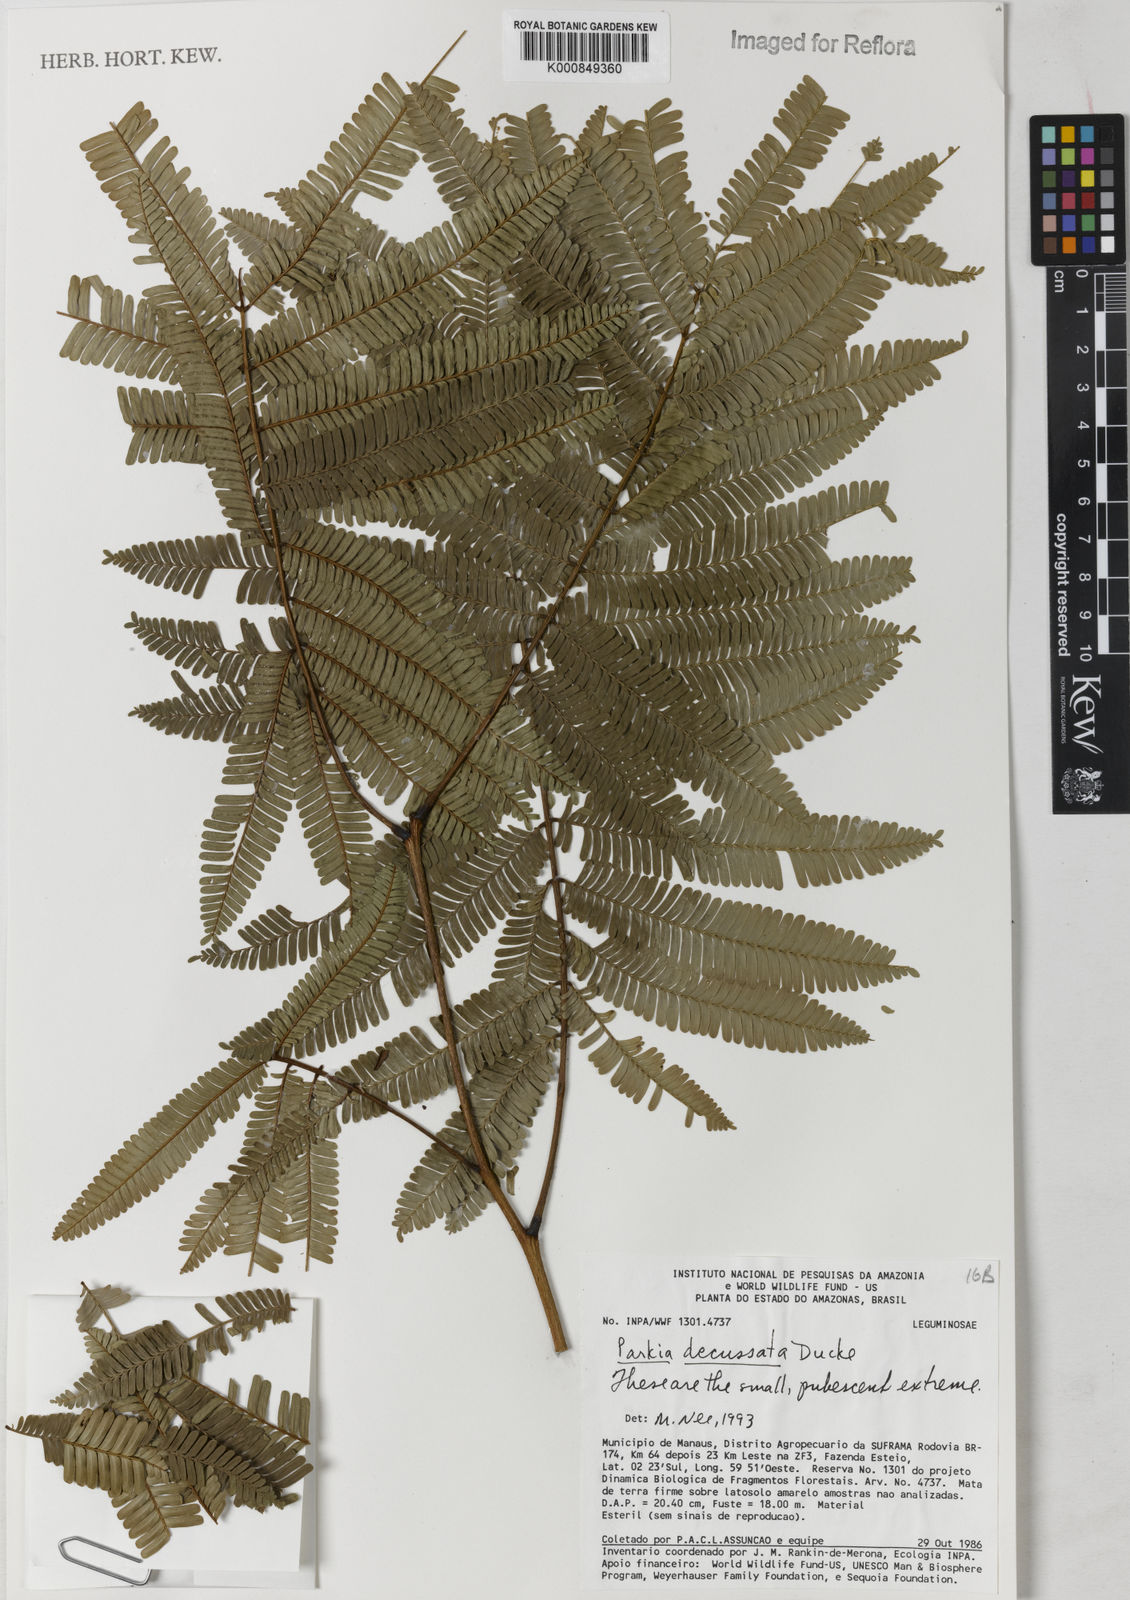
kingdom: Plantae
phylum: Tracheophyta
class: Magnoliopsida
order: Fabales
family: Fabaceae
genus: Parkia
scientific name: Parkia decussata
